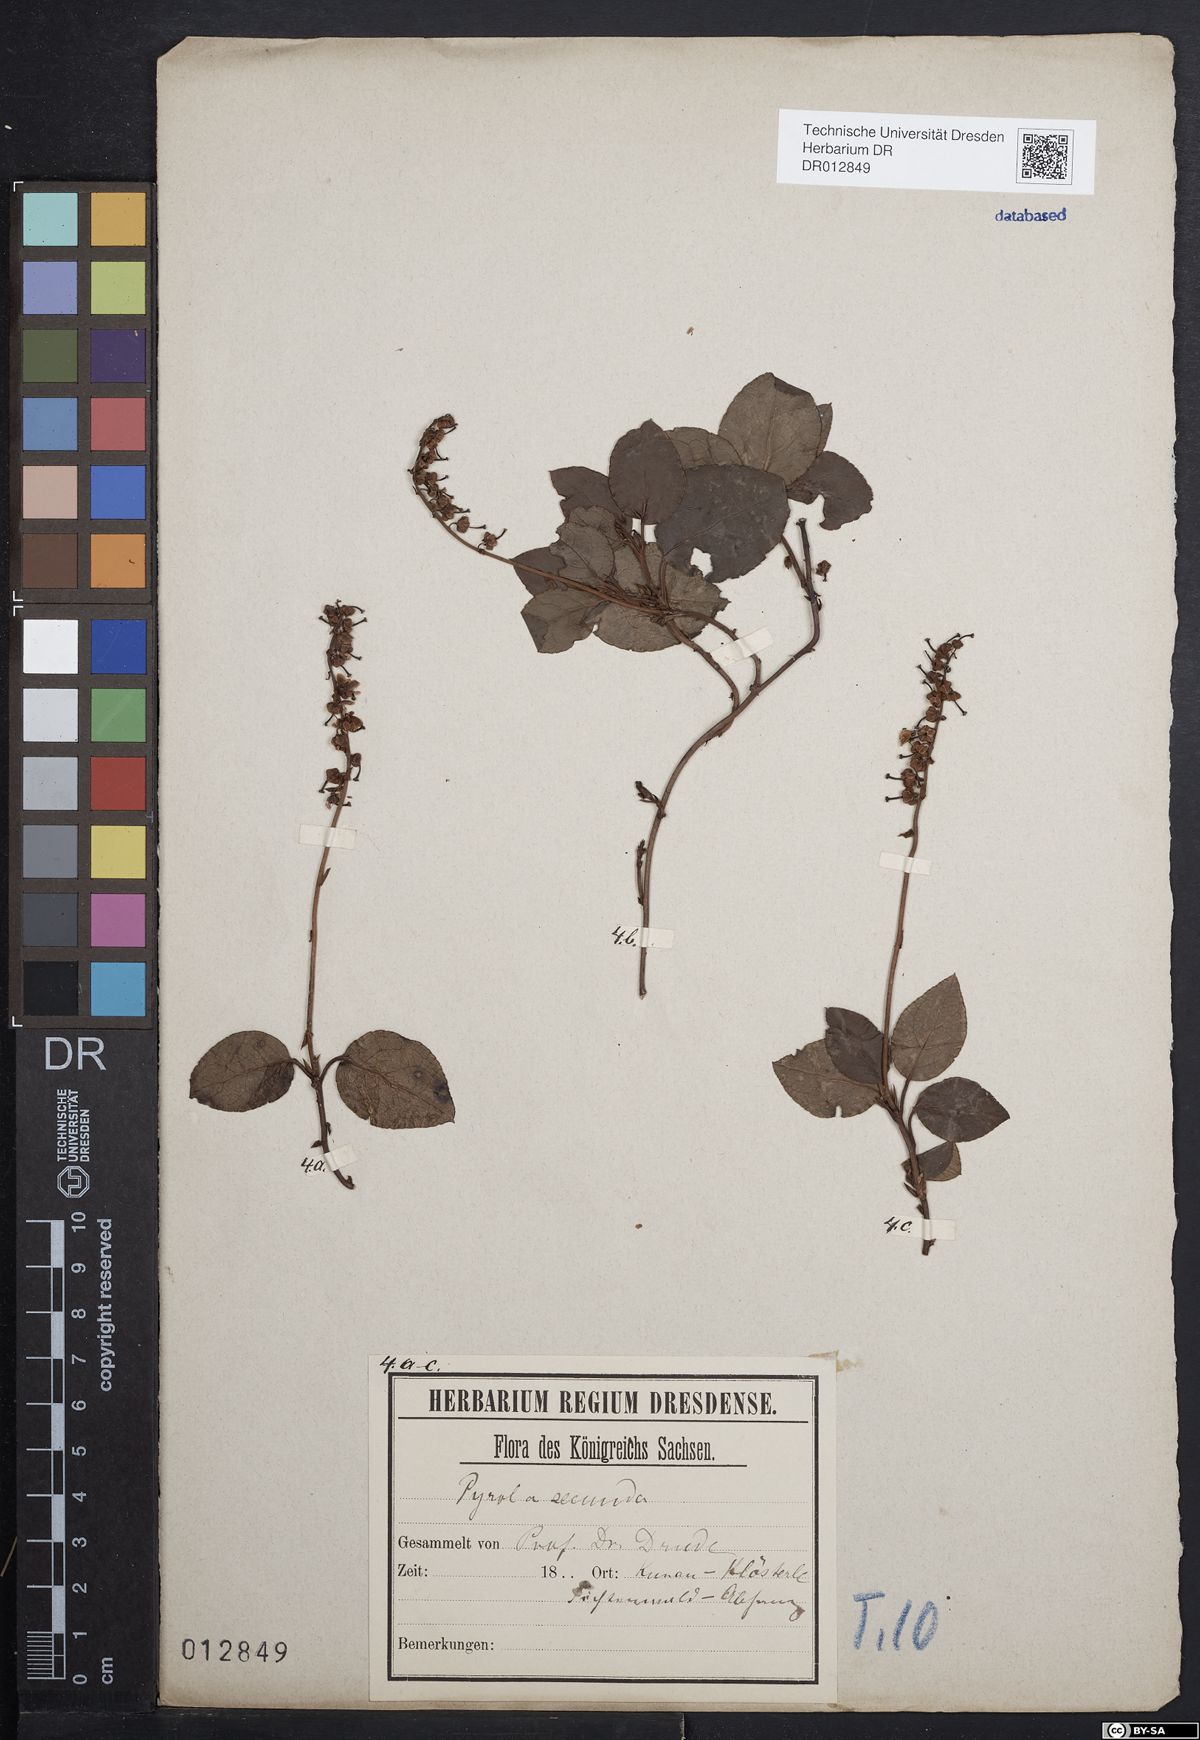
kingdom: Plantae
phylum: Tracheophyta
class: Magnoliopsida
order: Ericales
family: Ericaceae
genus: Orthilia
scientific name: Orthilia secunda
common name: One-sided orthilia
